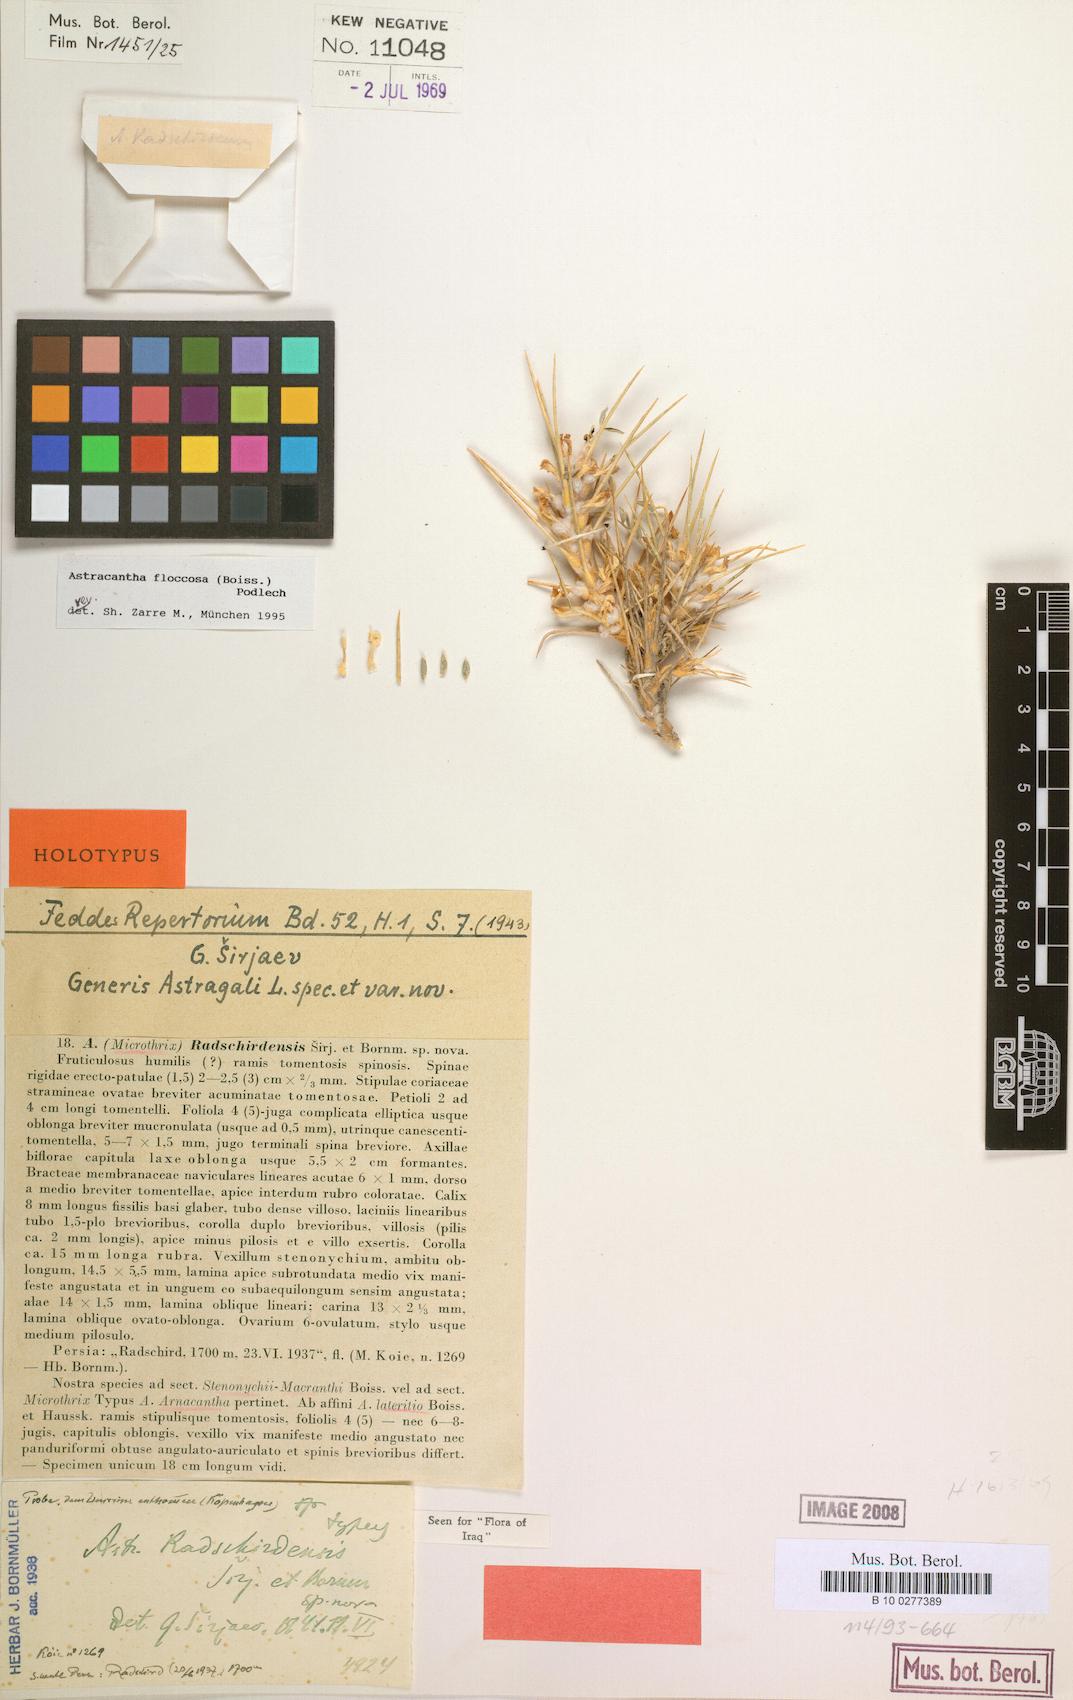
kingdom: Plantae
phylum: Tracheophyta
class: Magnoliopsida
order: Fabales
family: Fabaceae
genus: Astragalus
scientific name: Astragalus floccosus
